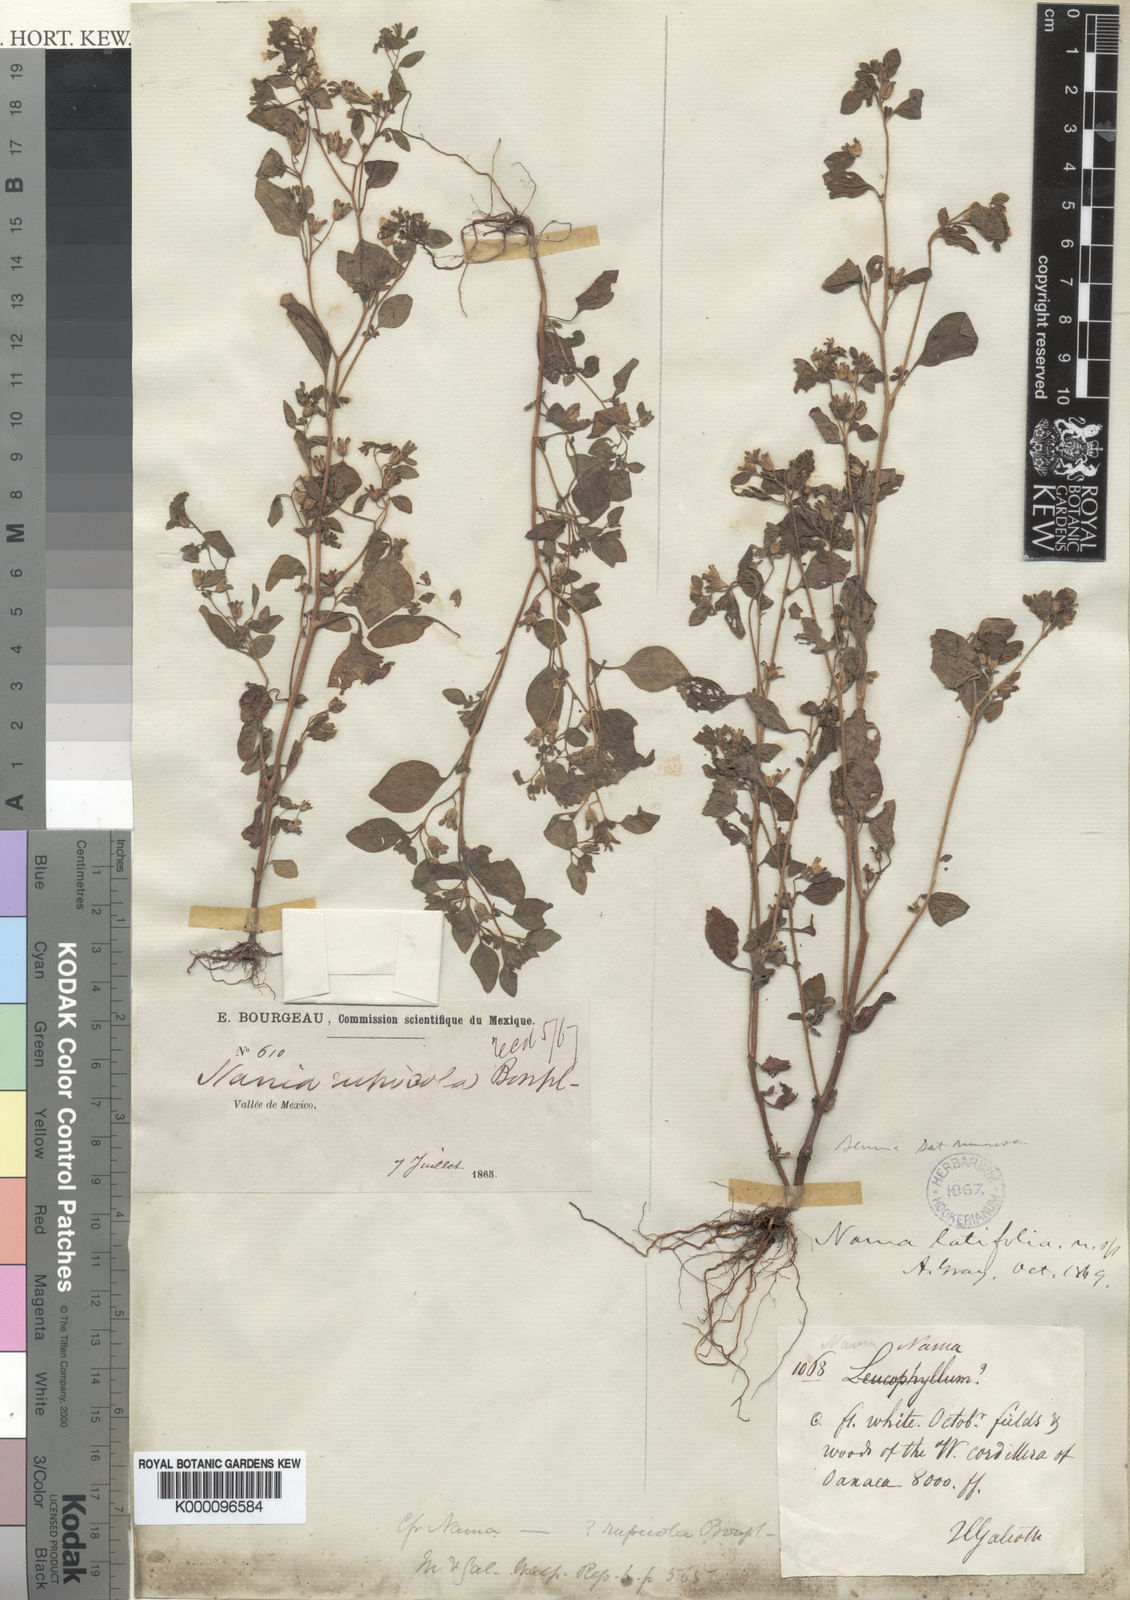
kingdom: Plantae
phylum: Tracheophyta
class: Magnoliopsida
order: Boraginales
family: Namaceae
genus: Nama
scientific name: Nama dichotoma
